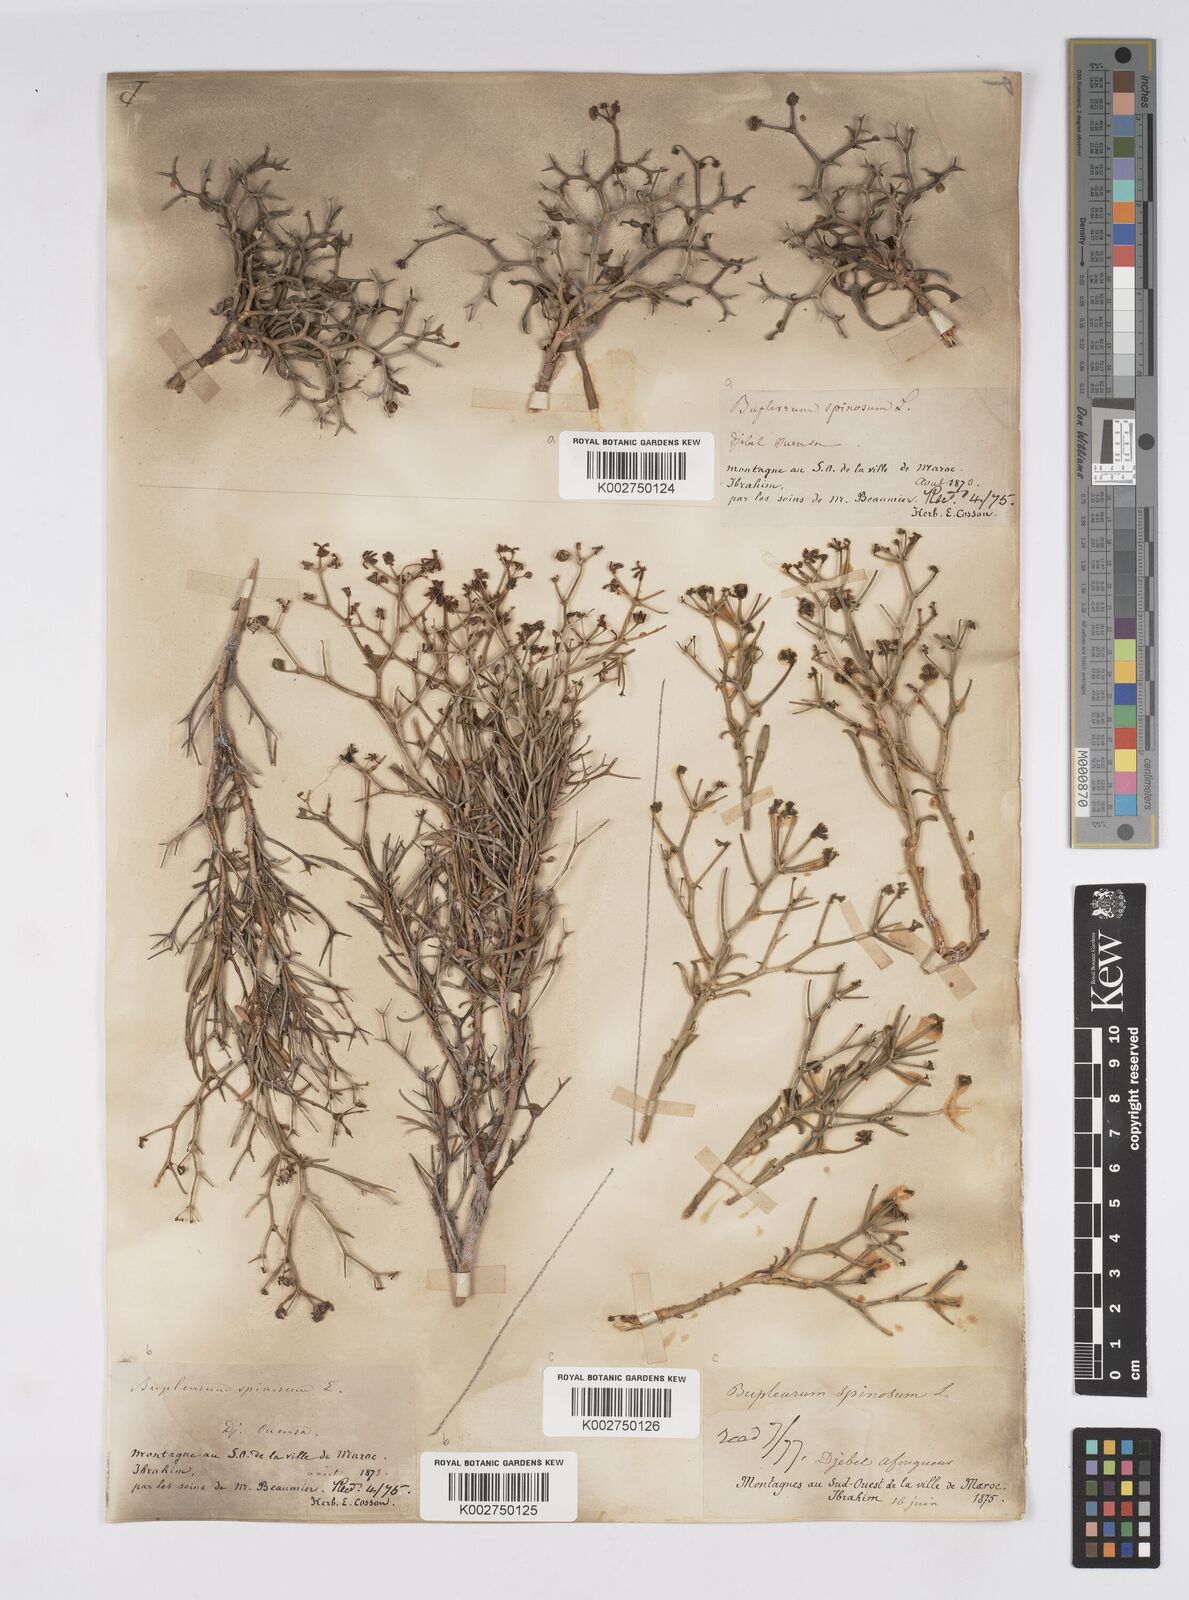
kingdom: Plantae
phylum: Tracheophyta
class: Magnoliopsida
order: Apiales
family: Apiaceae
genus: Bupleurum
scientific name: Bupleurum fruticescens
